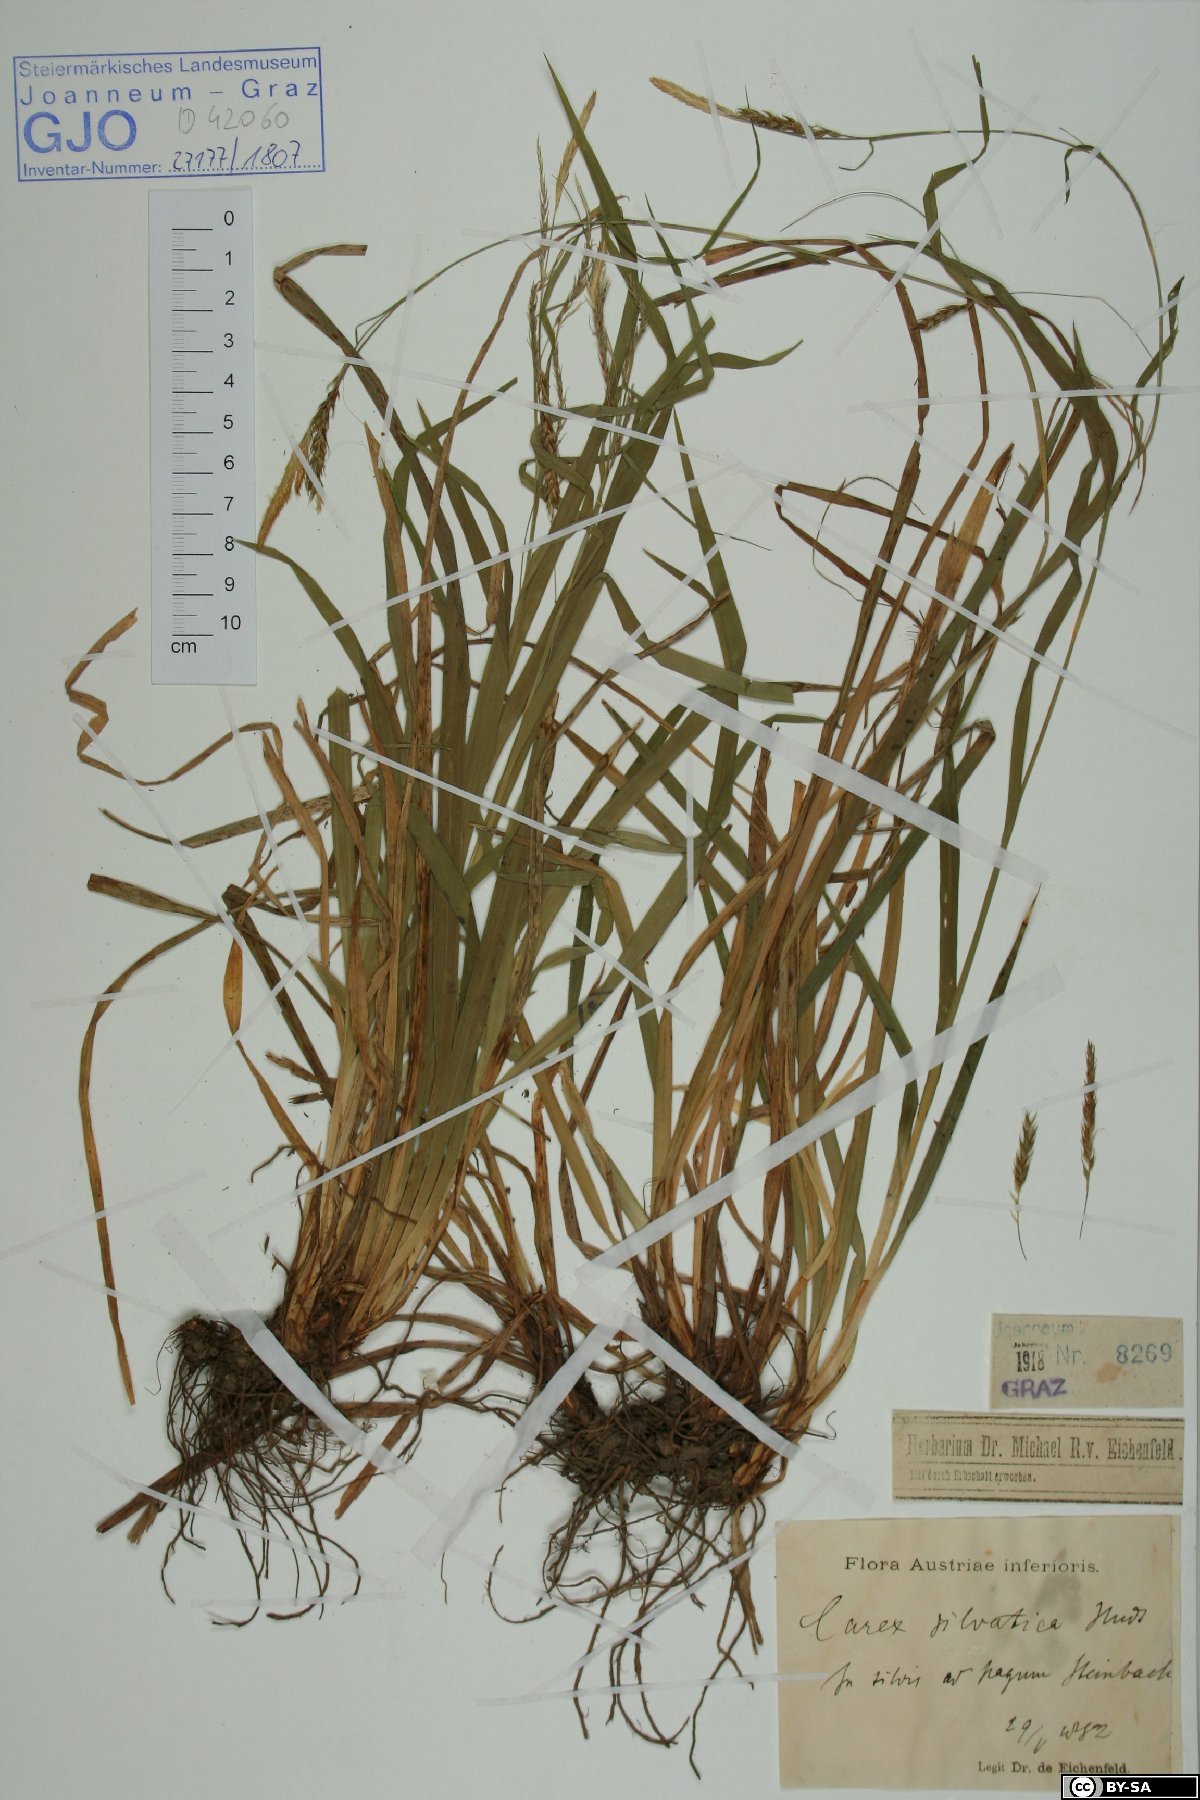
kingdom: Plantae
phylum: Tracheophyta
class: Liliopsida
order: Poales
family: Cyperaceae
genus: Carex
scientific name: Carex sylvatica
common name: Wood-sedge
